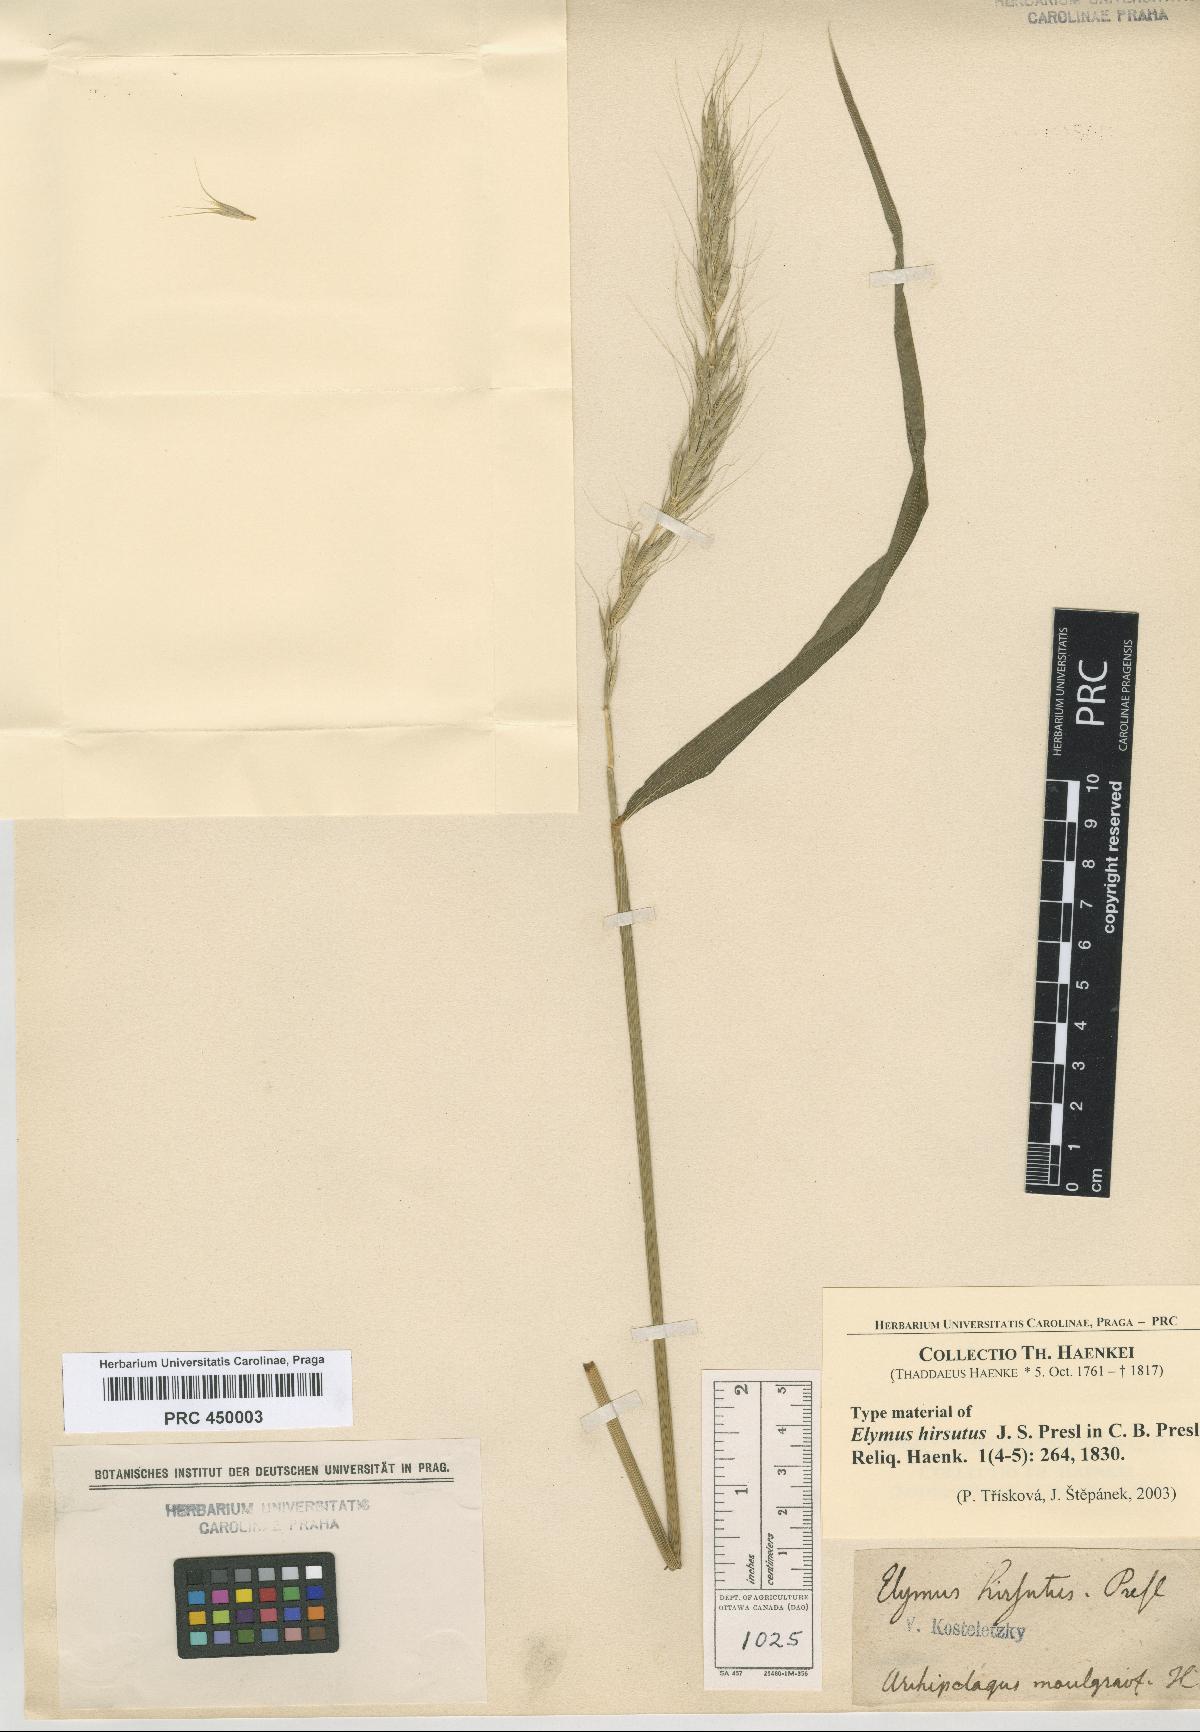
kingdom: Plantae
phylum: Tracheophyta
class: Liliopsida
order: Poales
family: Poaceae
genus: Elymus
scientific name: Elymus hirsutus
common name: Northwestern wild rye
